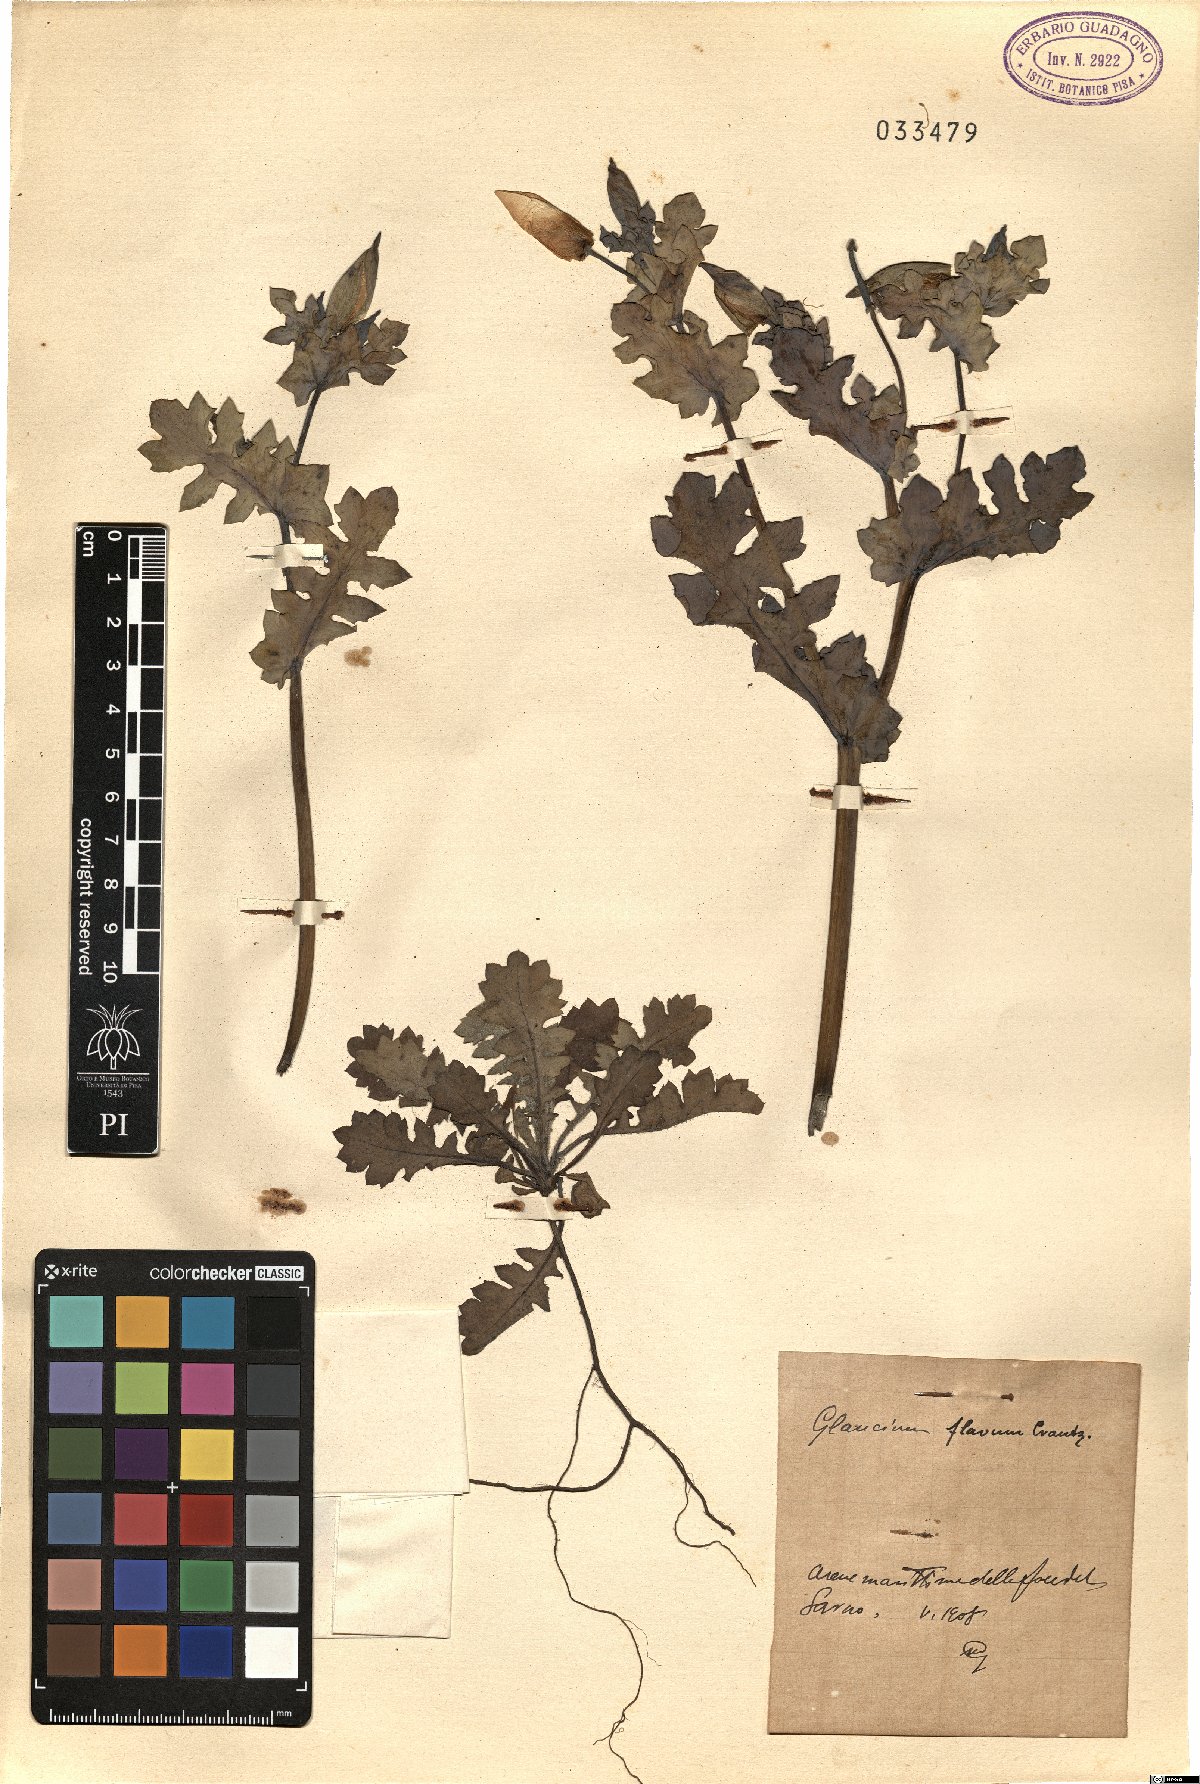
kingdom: Plantae
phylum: Tracheophyta
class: Magnoliopsida
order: Ranunculales
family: Papaveraceae
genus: Glaucium
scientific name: Glaucium flavum
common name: Yellow horned-poppy
